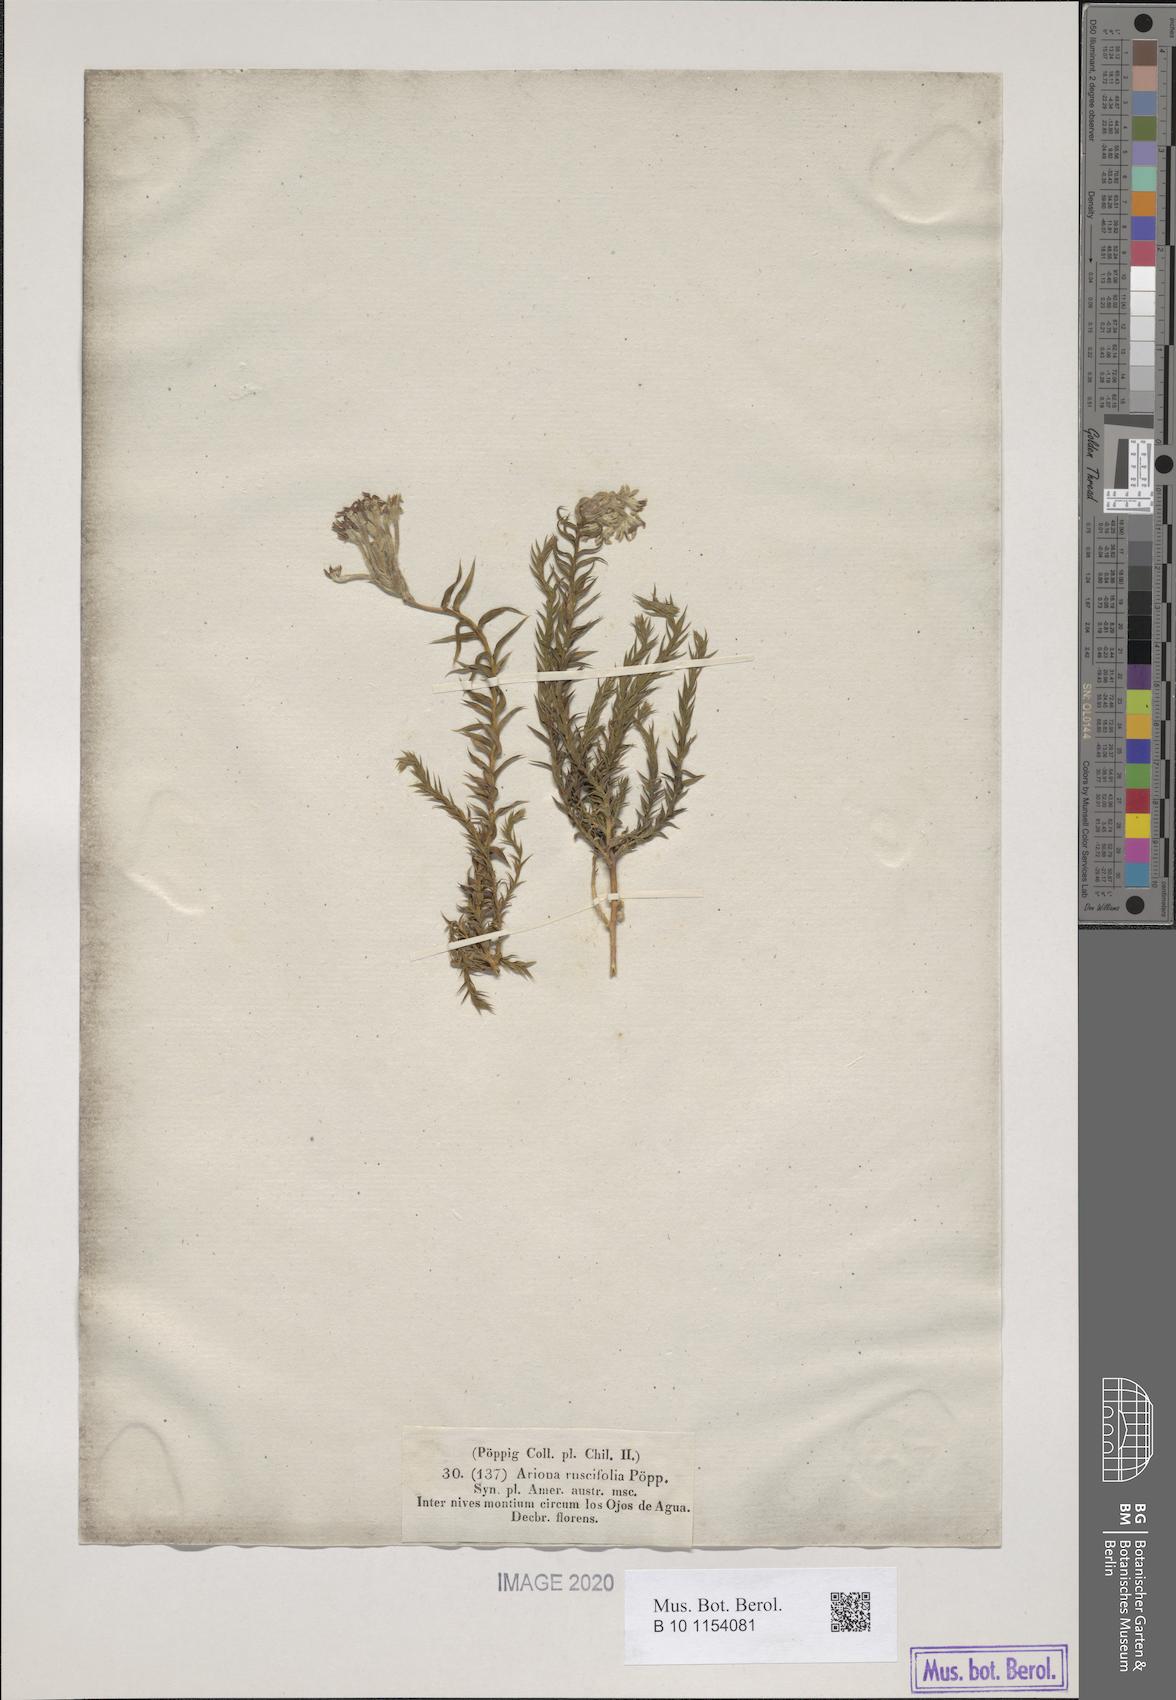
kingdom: Plantae
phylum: Tracheophyta
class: Magnoliopsida
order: Santalales
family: Schoepfiaceae
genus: Arjona
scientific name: Arjona patagonica
